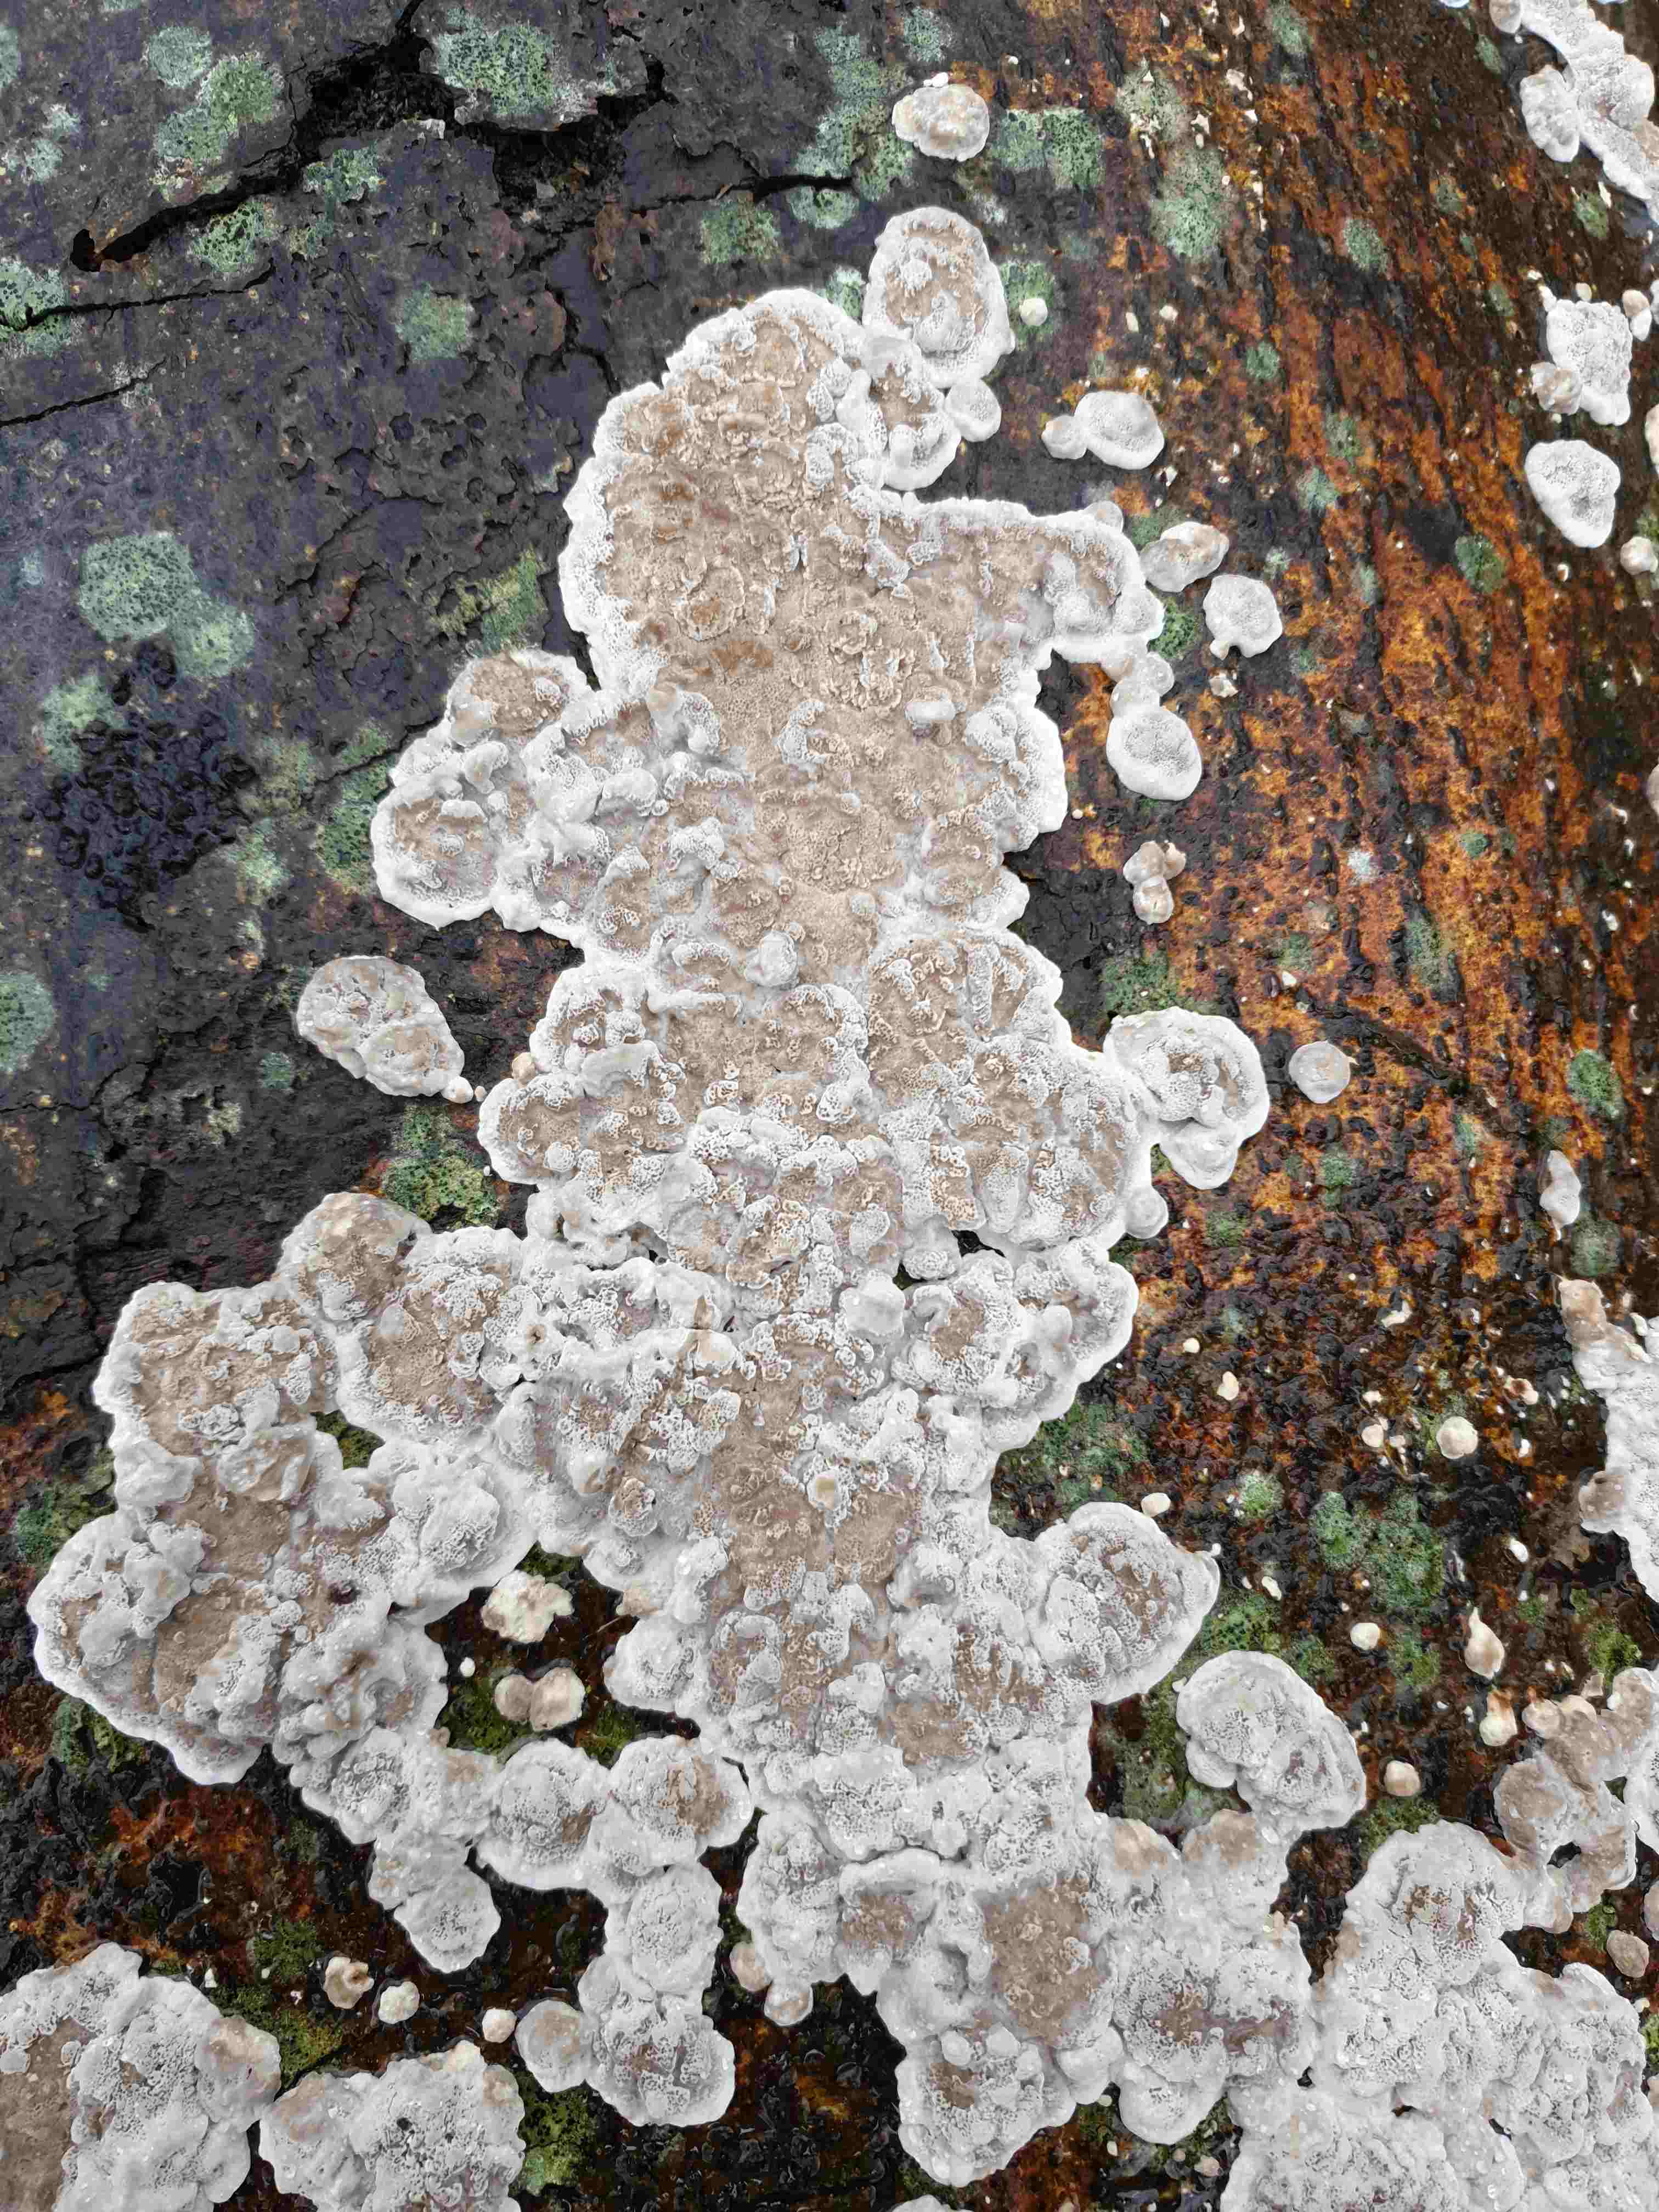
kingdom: Fungi
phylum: Basidiomycota
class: Agaricomycetes
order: Polyporales
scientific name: Polyporales
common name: poresvampordenen
